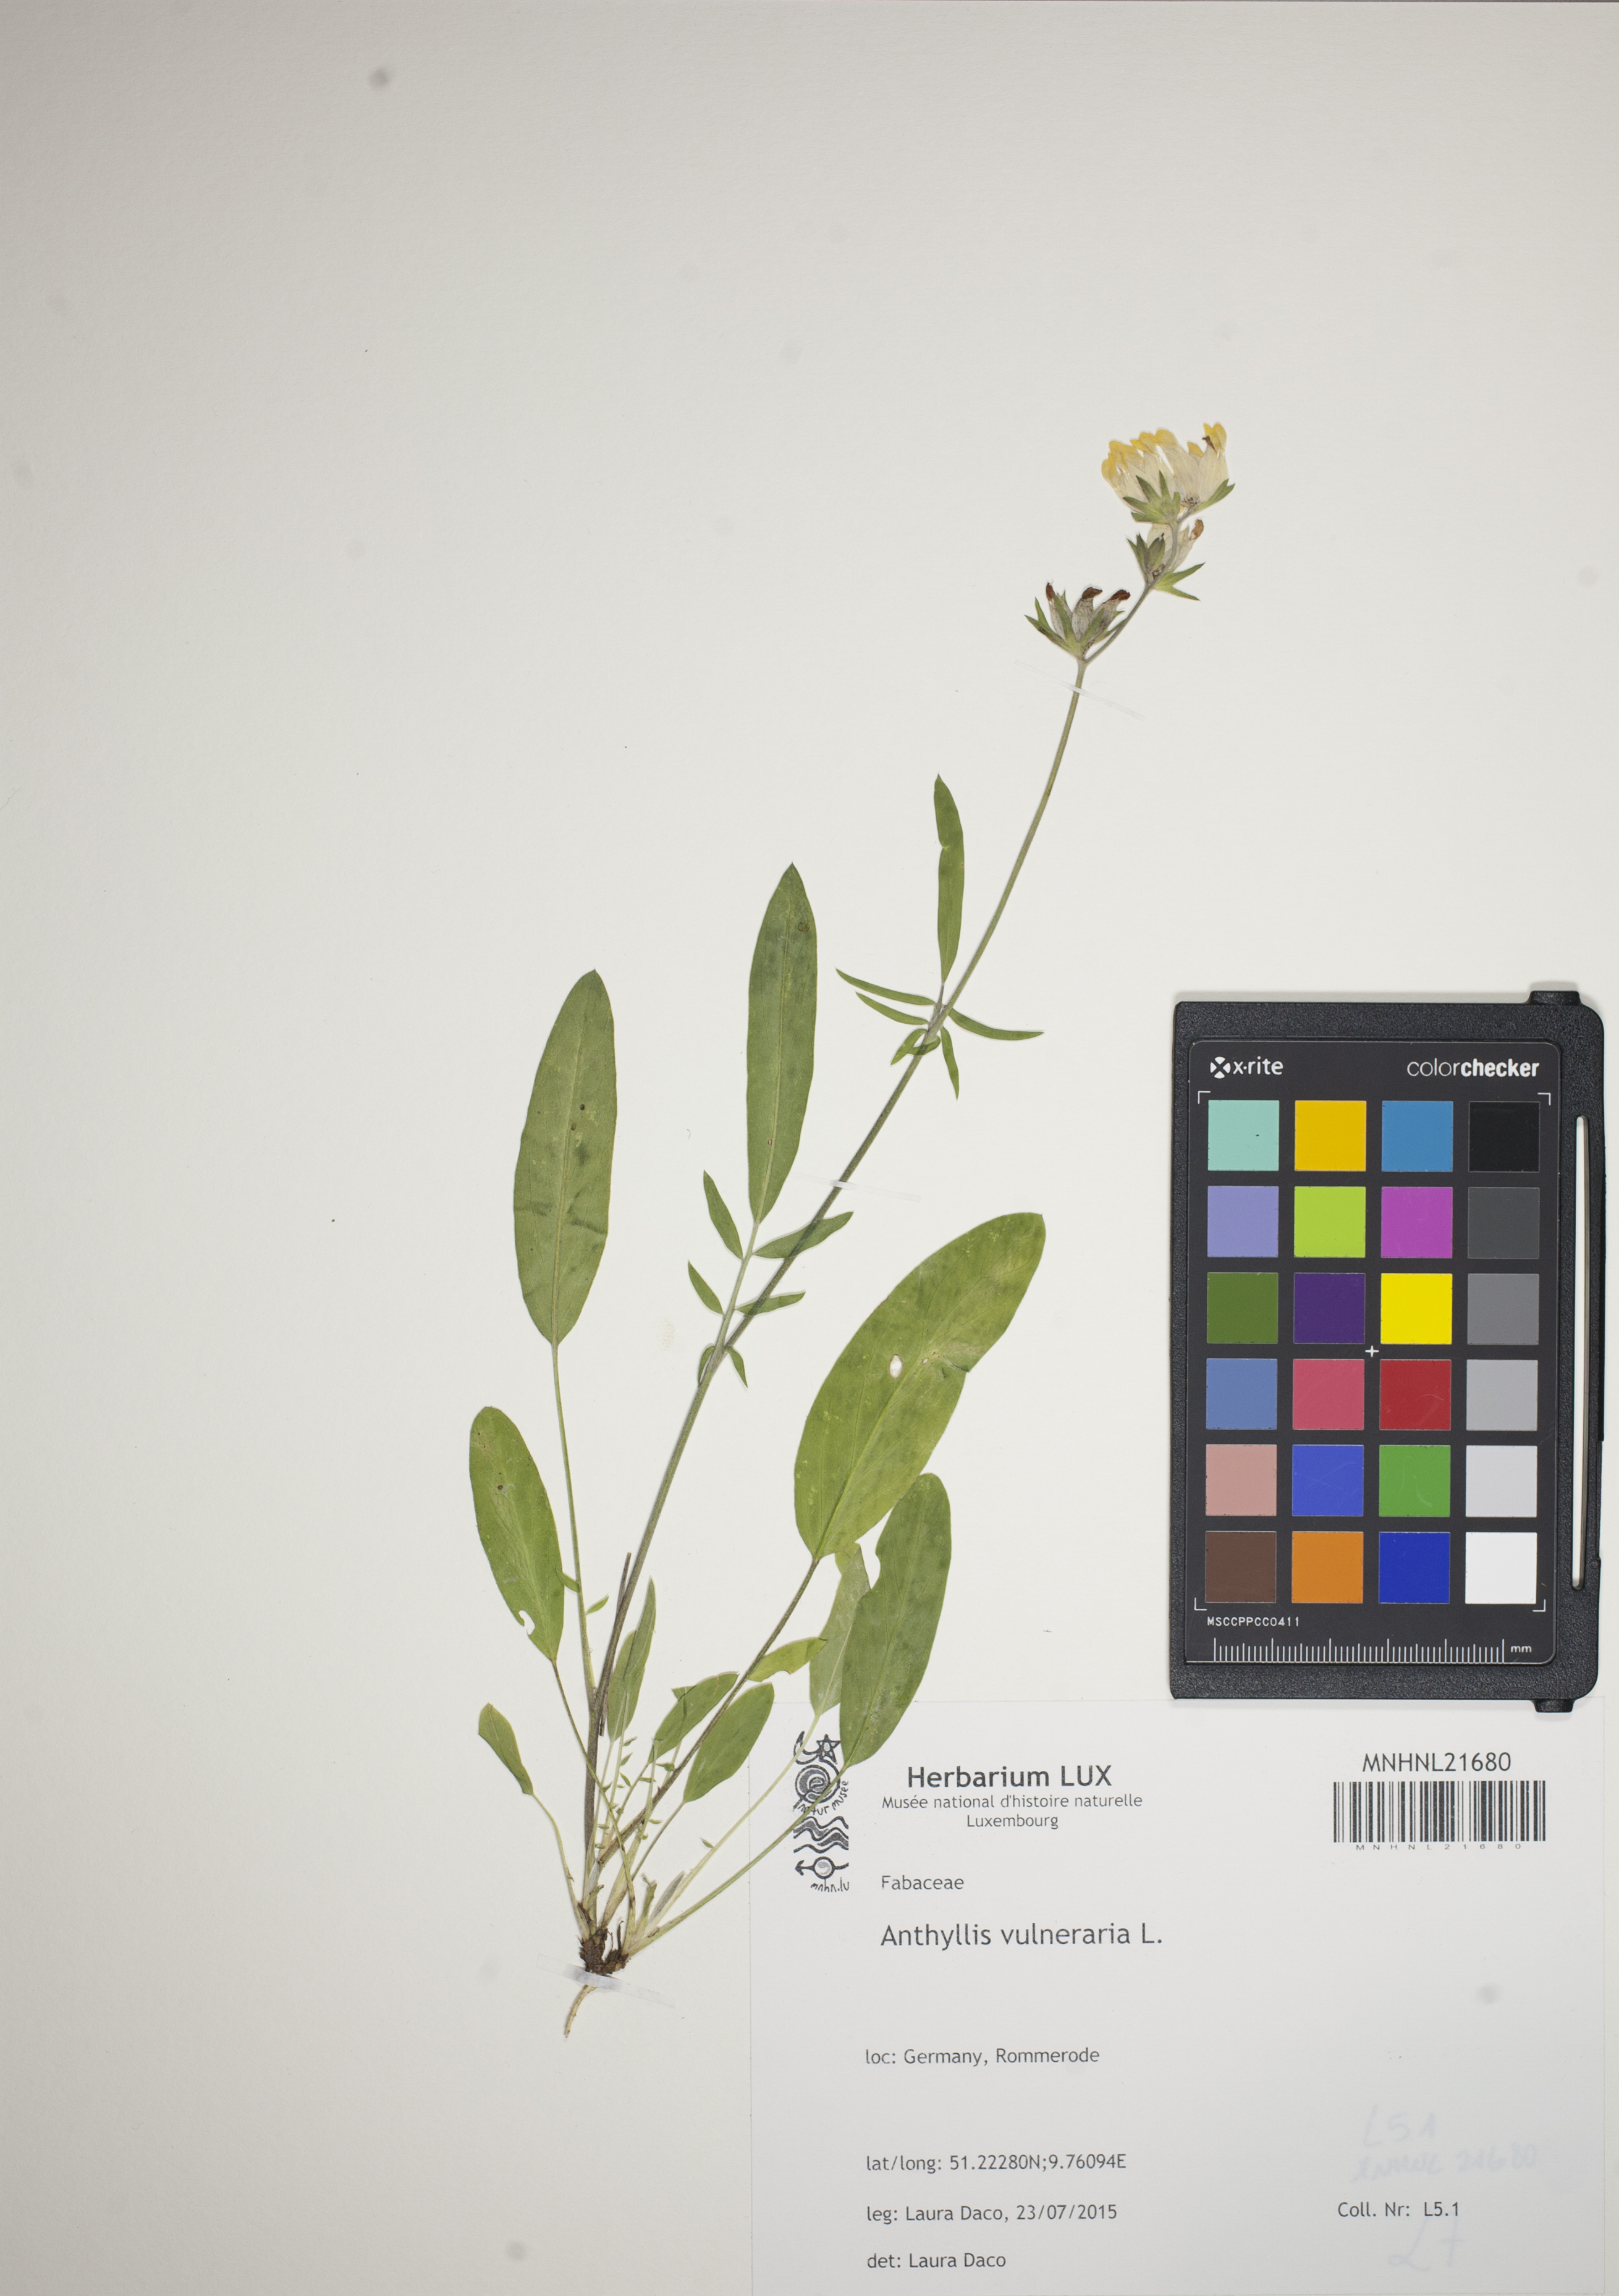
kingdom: Plantae
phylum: Tracheophyta
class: Magnoliopsida
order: Fabales
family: Fabaceae
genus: Anthyllis
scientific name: Anthyllis vulneraria
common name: Kidney vetch
